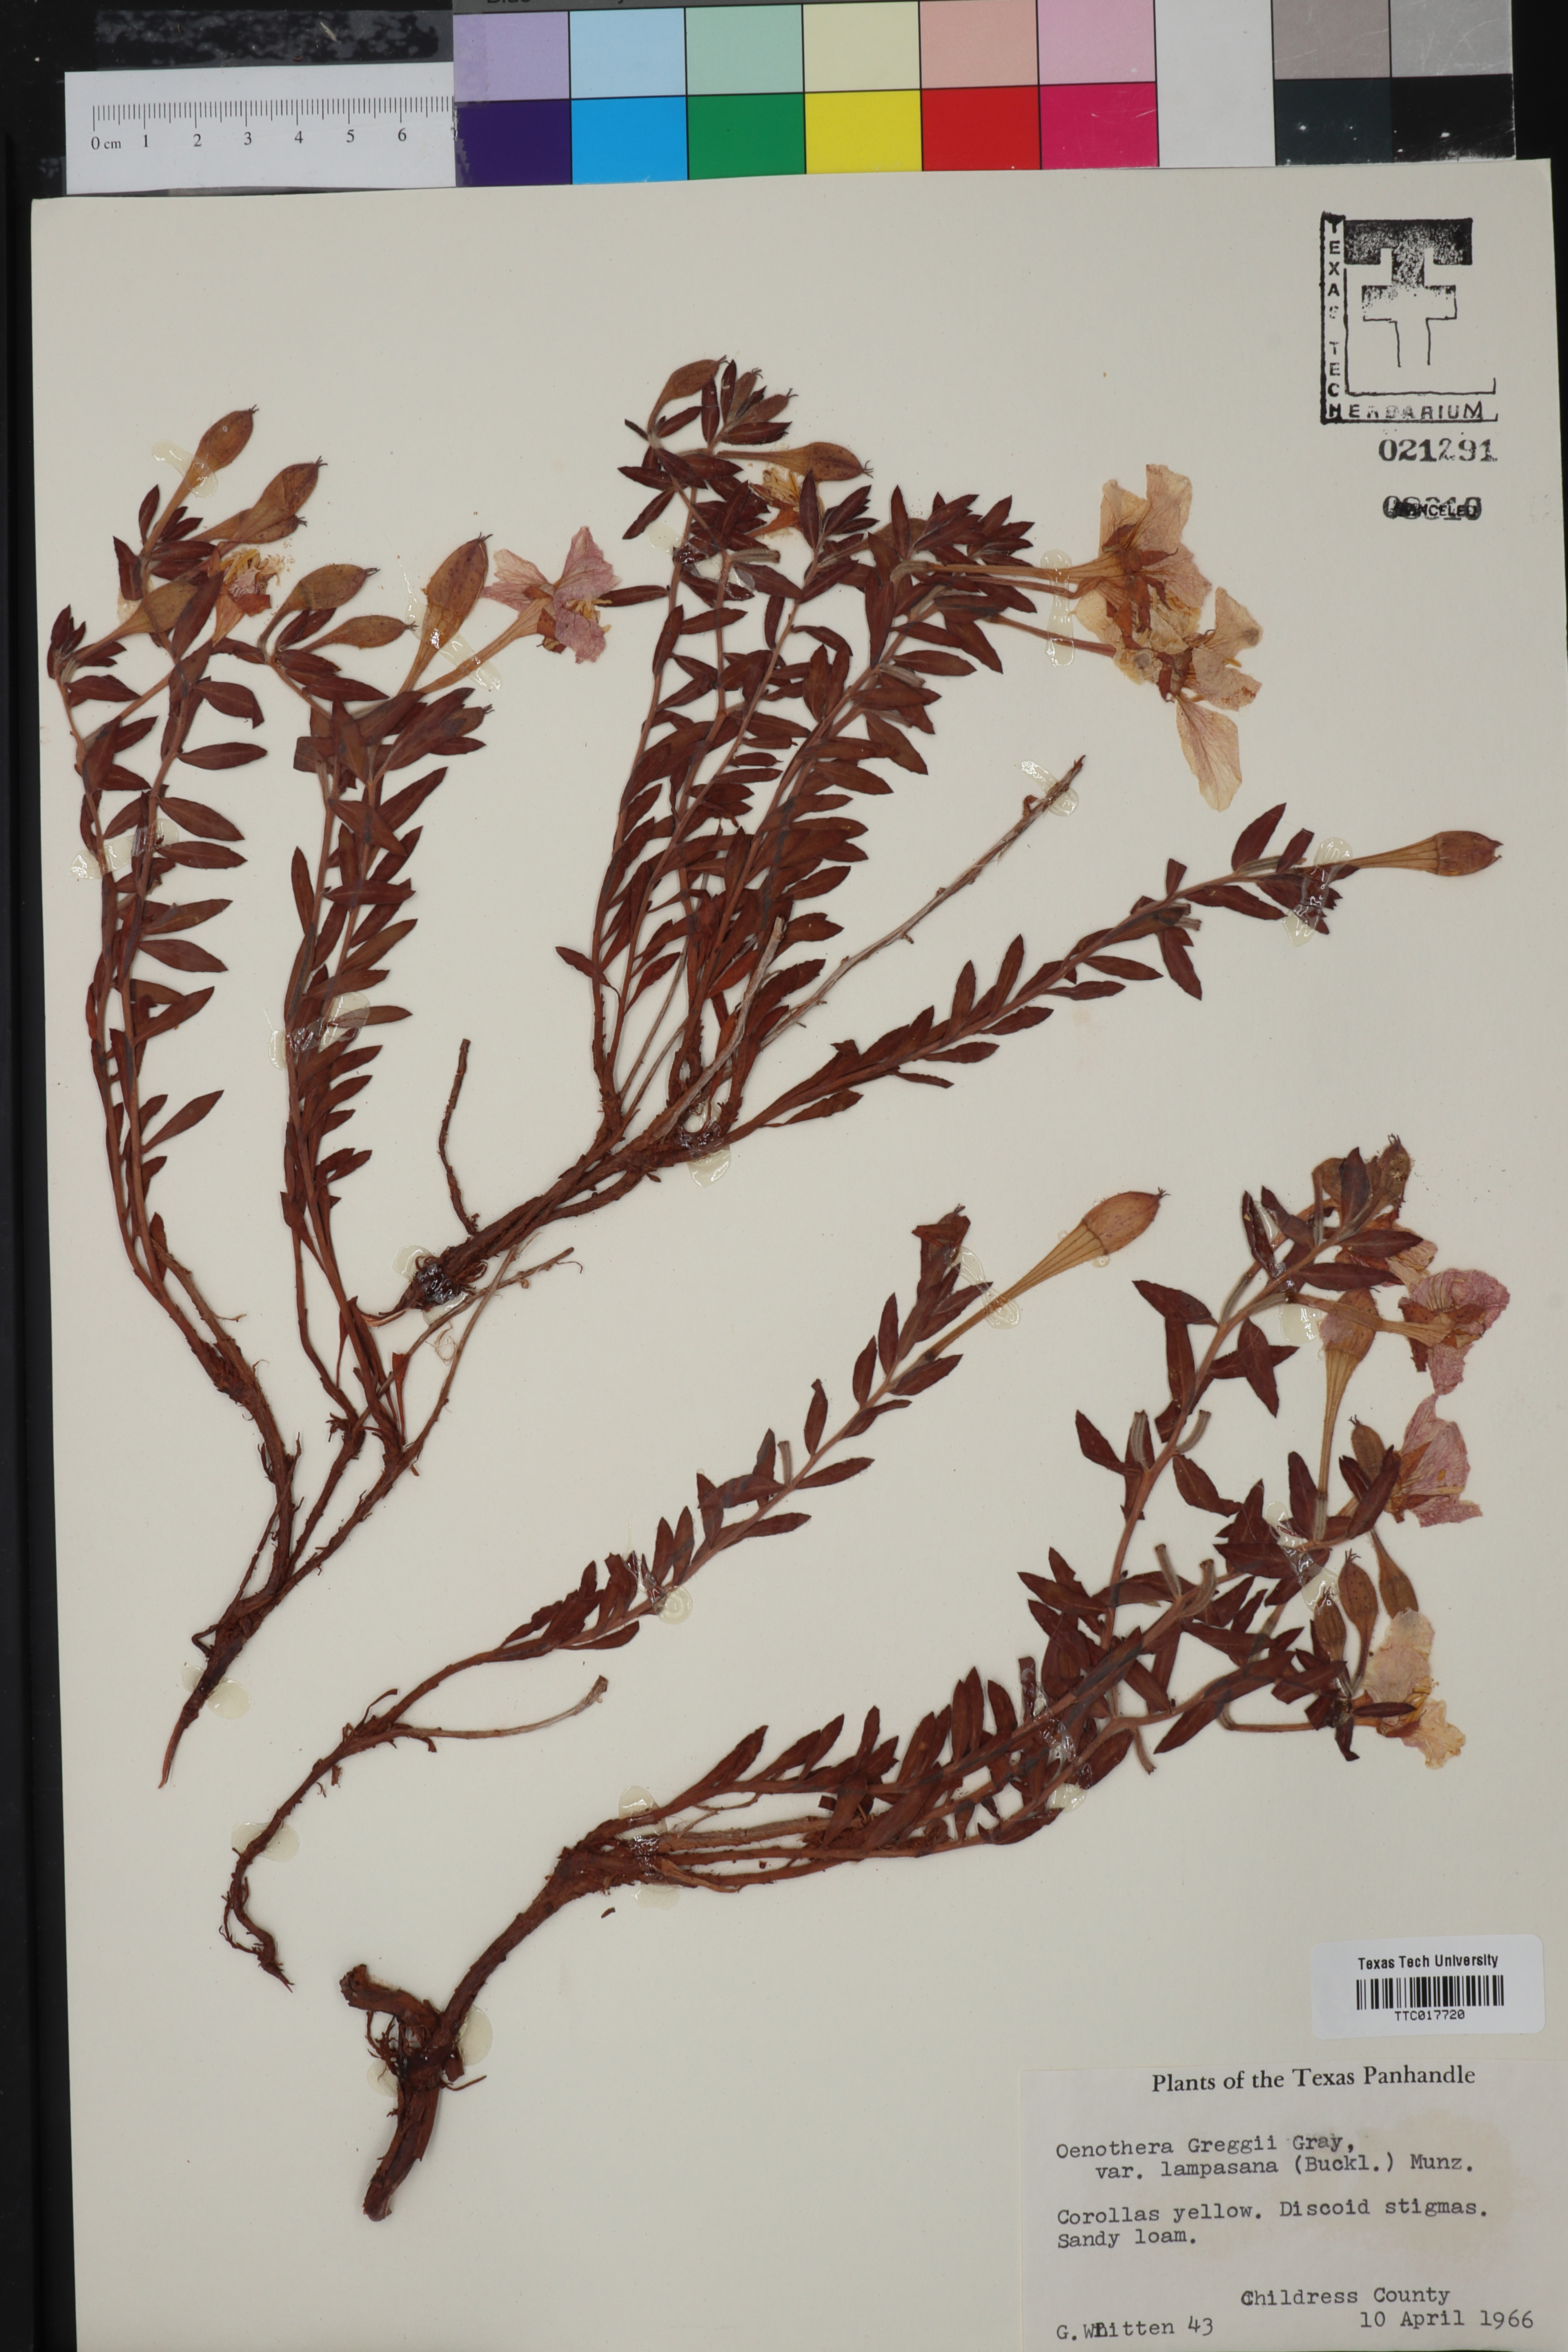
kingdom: Plantae
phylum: Tracheophyta
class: Magnoliopsida
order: Myrtales
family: Onagraceae
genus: Oenothera
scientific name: Oenothera hartwegii
